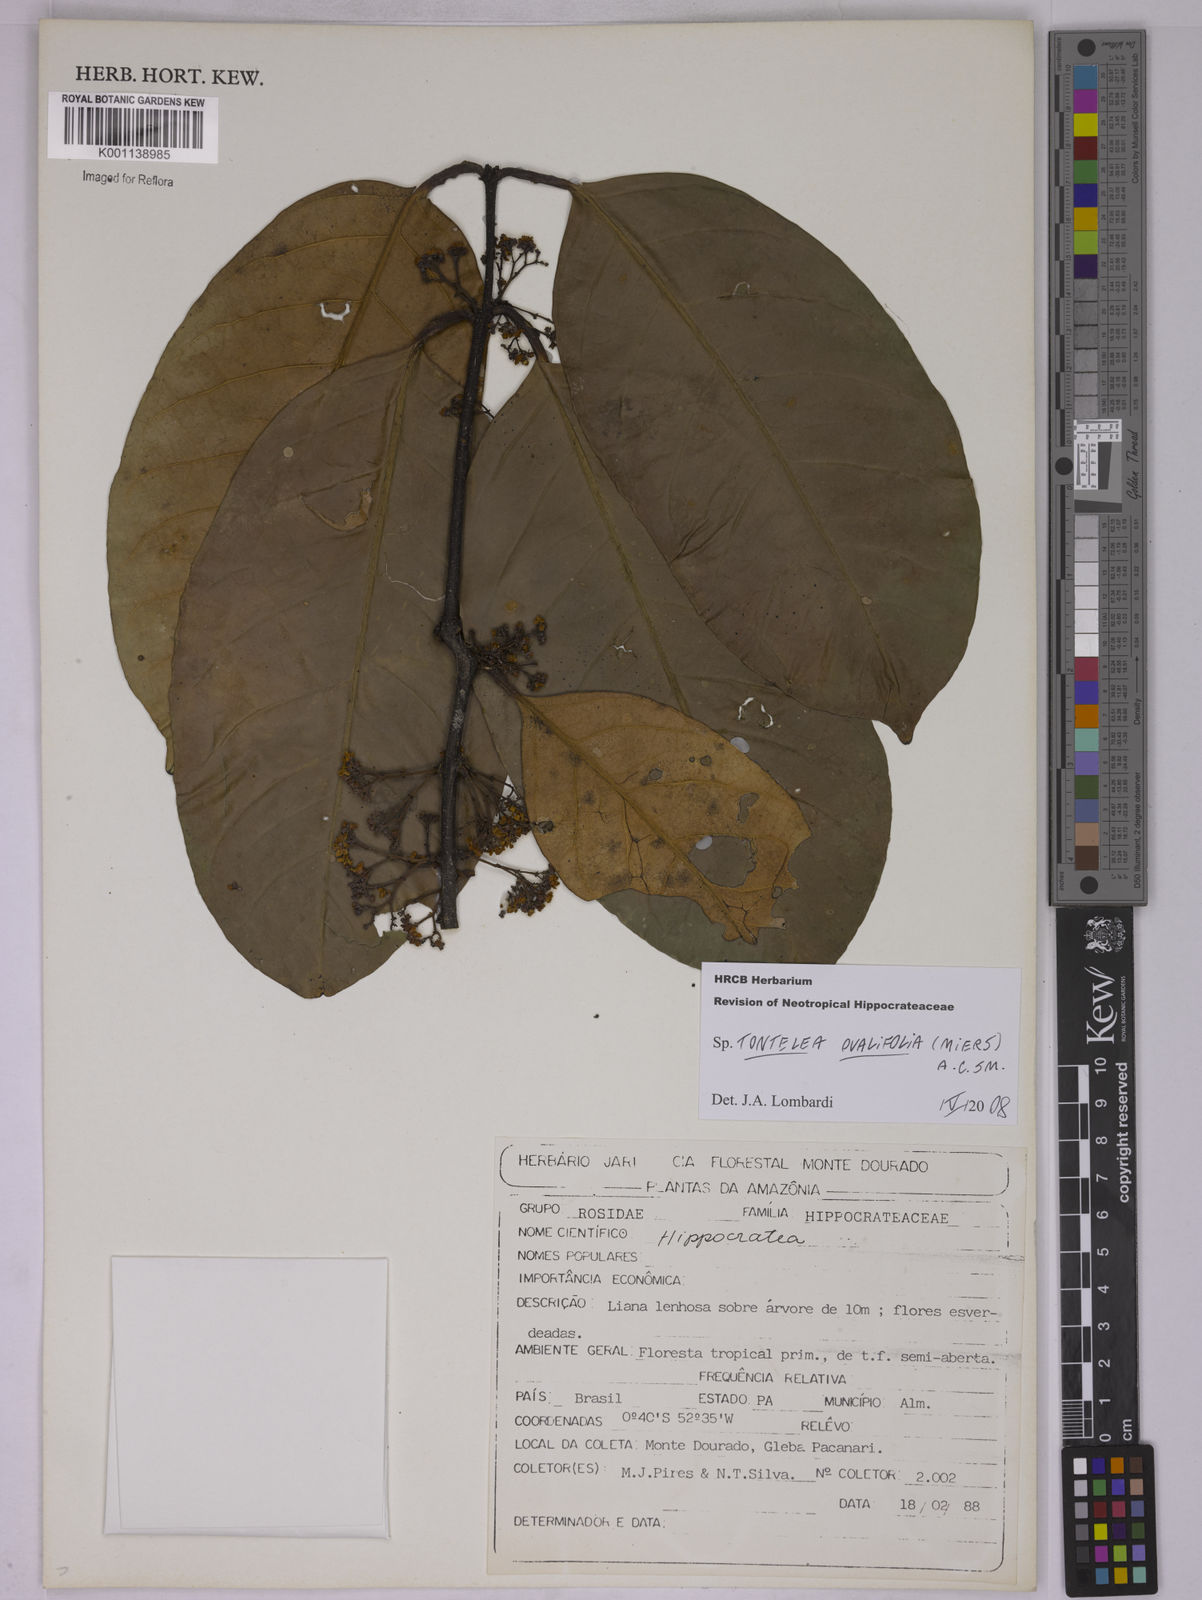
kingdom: Plantae
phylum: Tracheophyta
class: Magnoliopsida
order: Celastrales
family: Celastraceae
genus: Tontelea
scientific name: Tontelea passiflora
